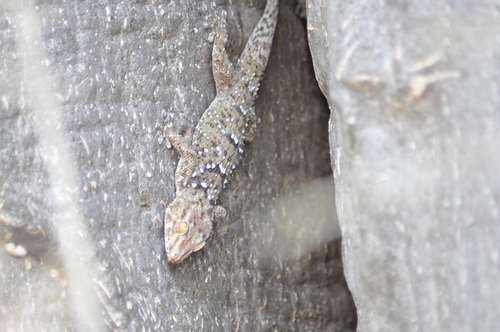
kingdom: Animalia
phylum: Chordata
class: Squamata
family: Gekkonidae
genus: Chondrodactylus
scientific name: Chondrodactylus turneri
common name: Turner’s gecko
